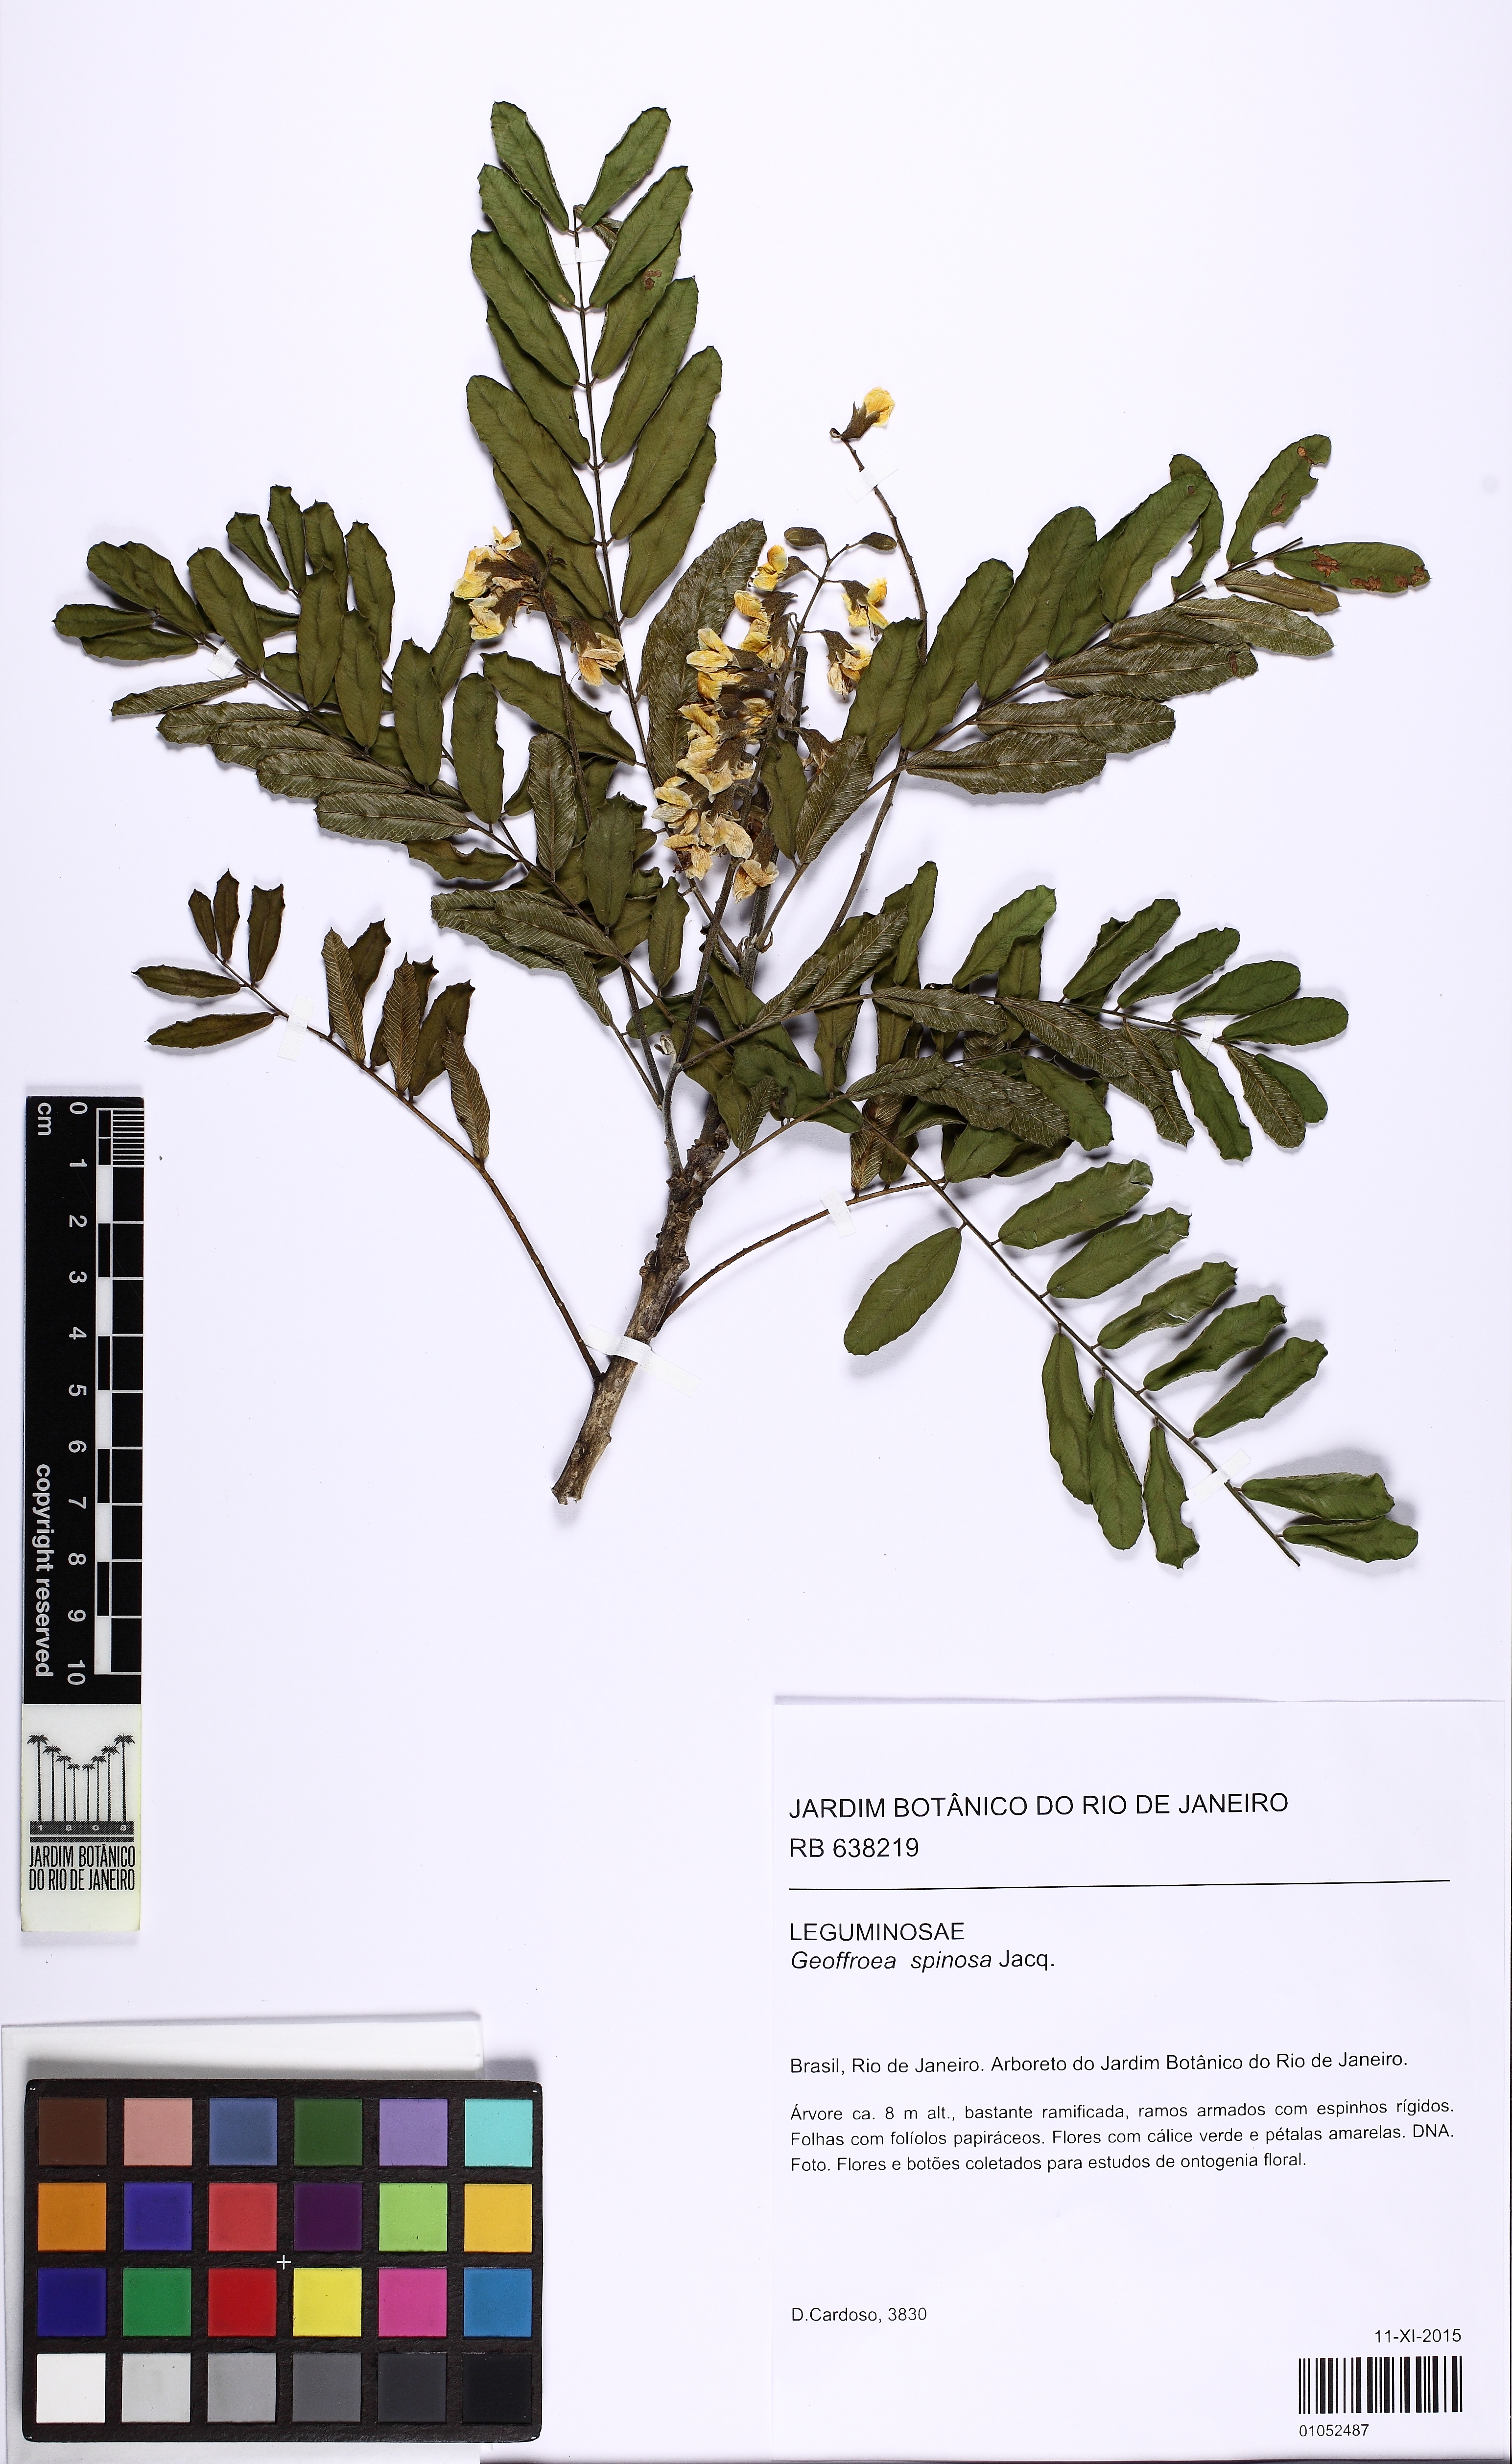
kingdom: Plantae
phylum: Tracheophyta
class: Magnoliopsida
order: Fabales
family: Fabaceae
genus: Geoffroea
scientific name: Geoffroea spinosa
